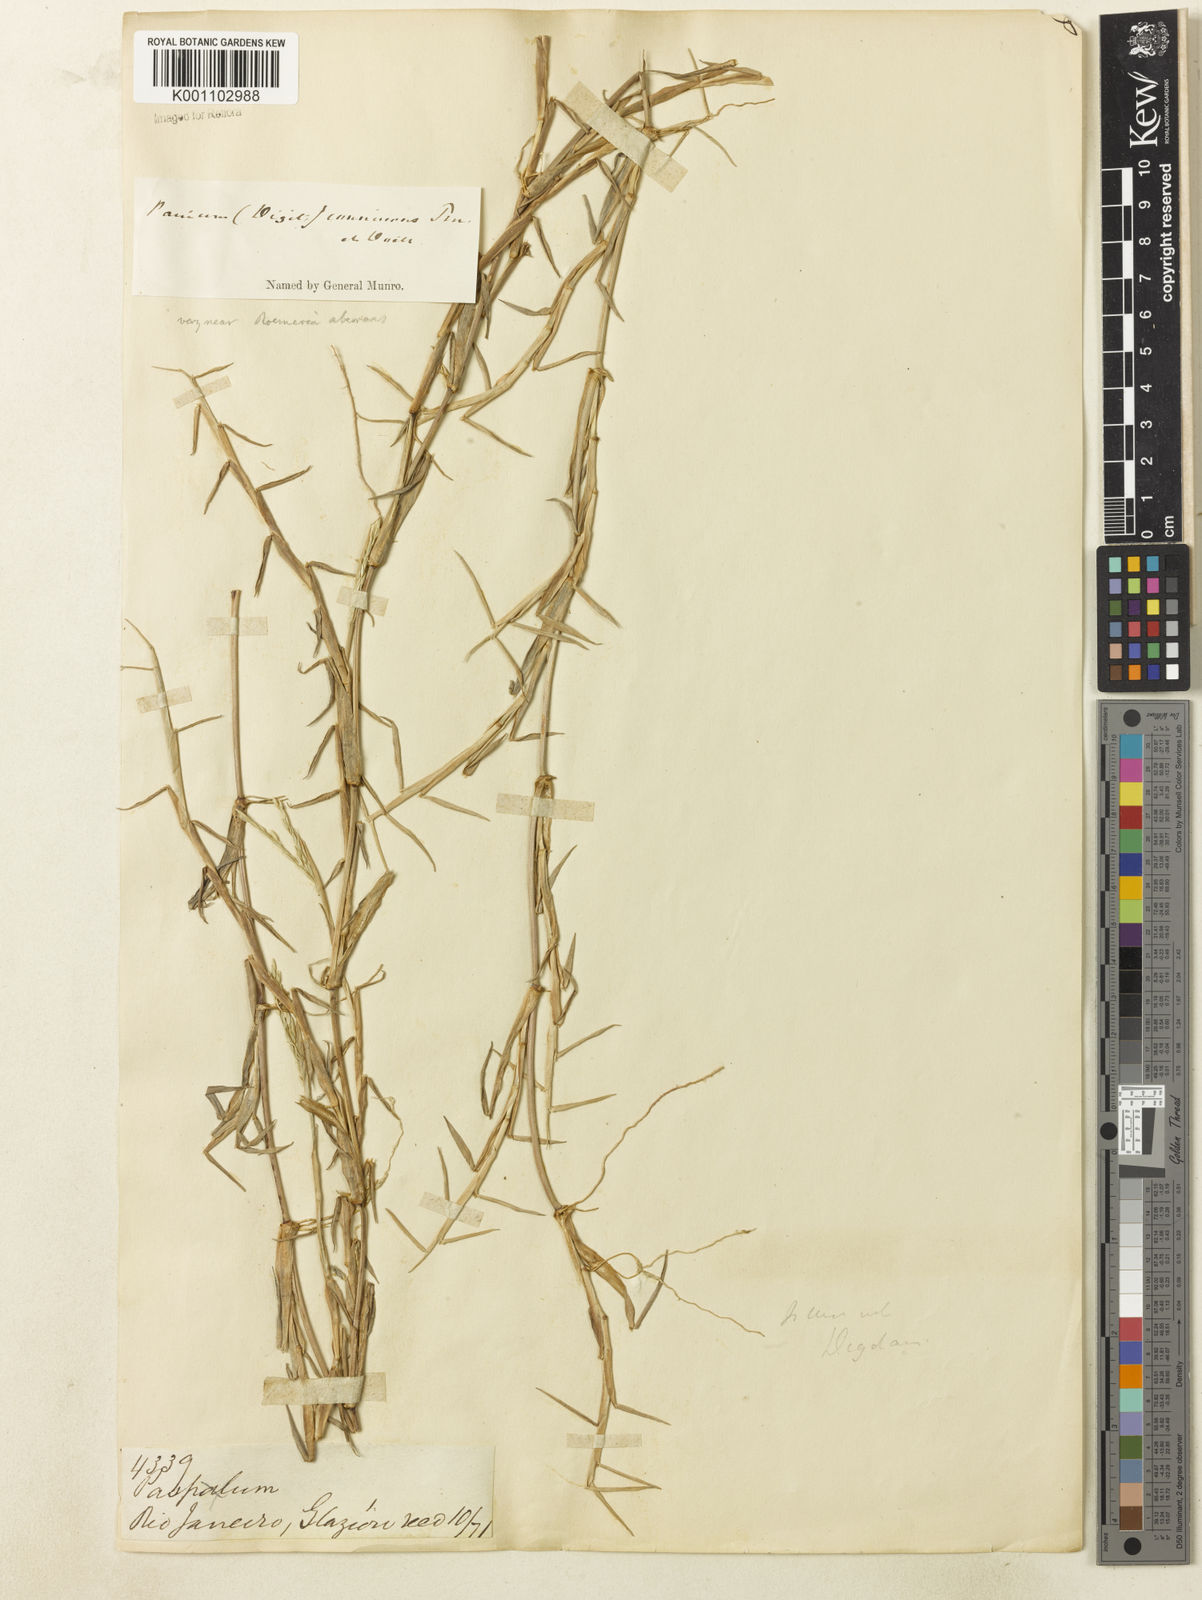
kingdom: Plantae
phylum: Tracheophyta
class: Liliopsida
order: Poales
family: Poaceae
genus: Digitaria
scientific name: Digitaria connivens
